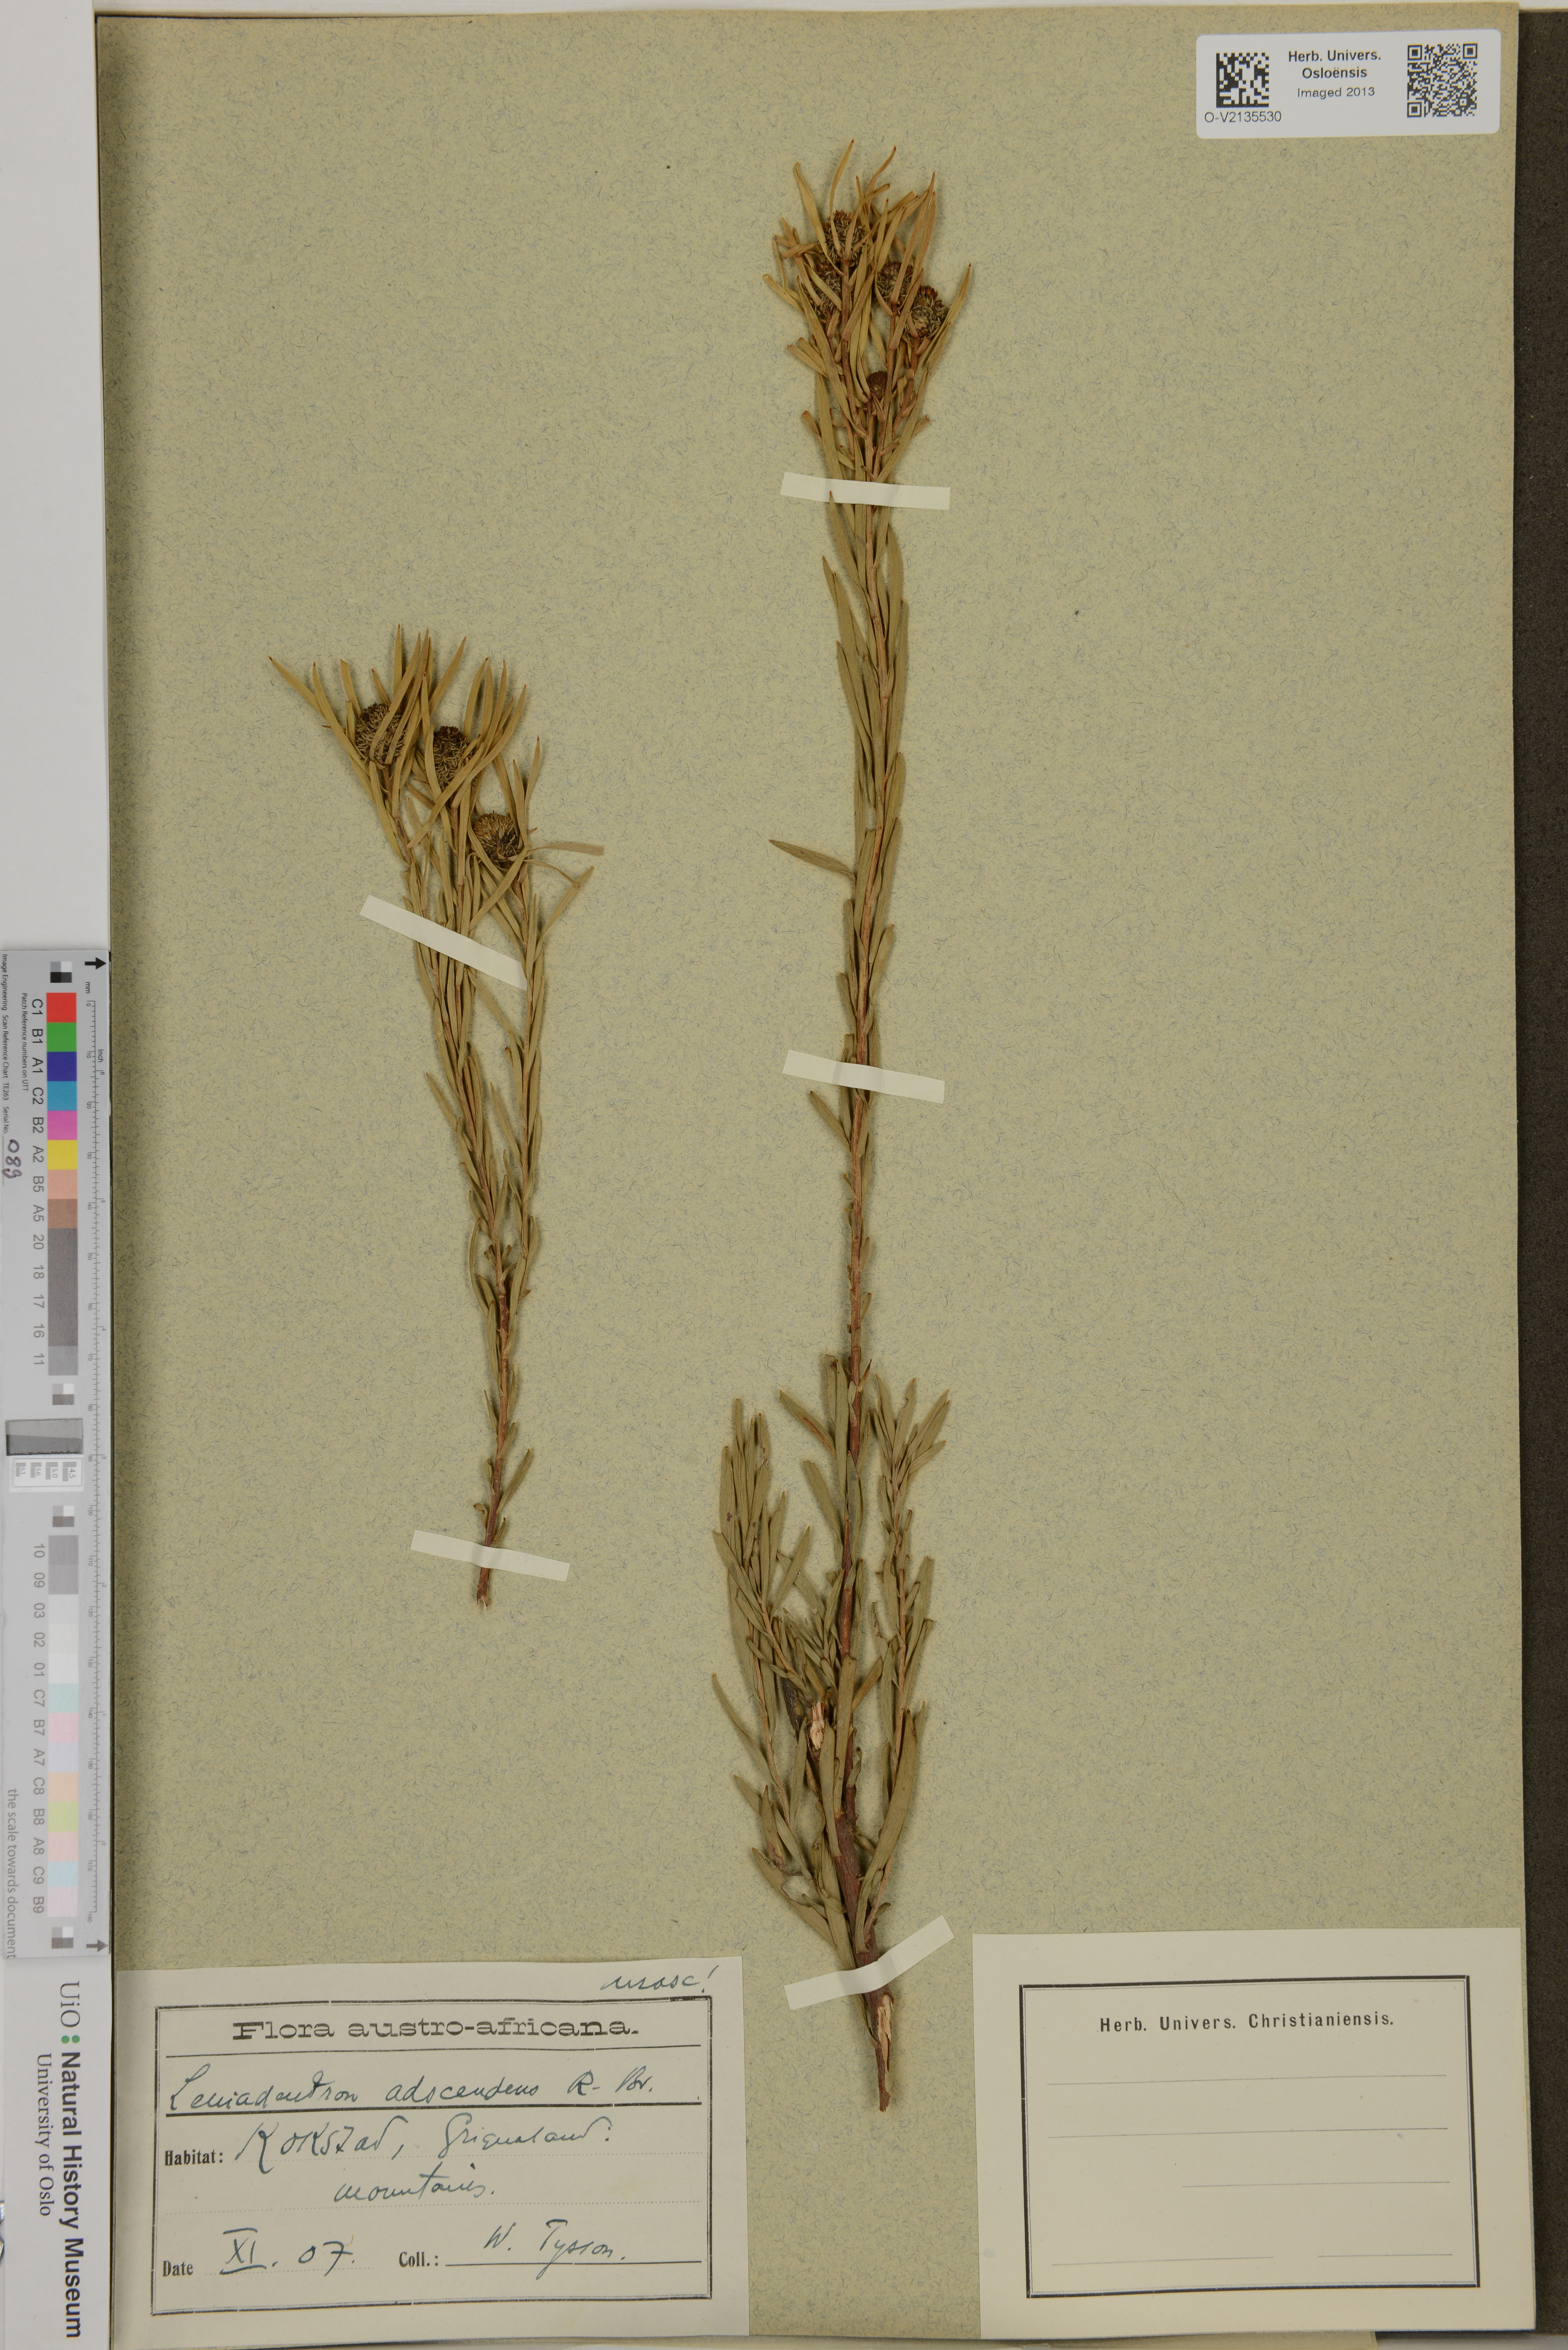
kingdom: Plantae
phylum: Tracheophyta
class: Magnoliopsida
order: Proteales
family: Proteaceae
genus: Leucadendron
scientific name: Leucadendron salignum
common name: Common sunshine conebush
